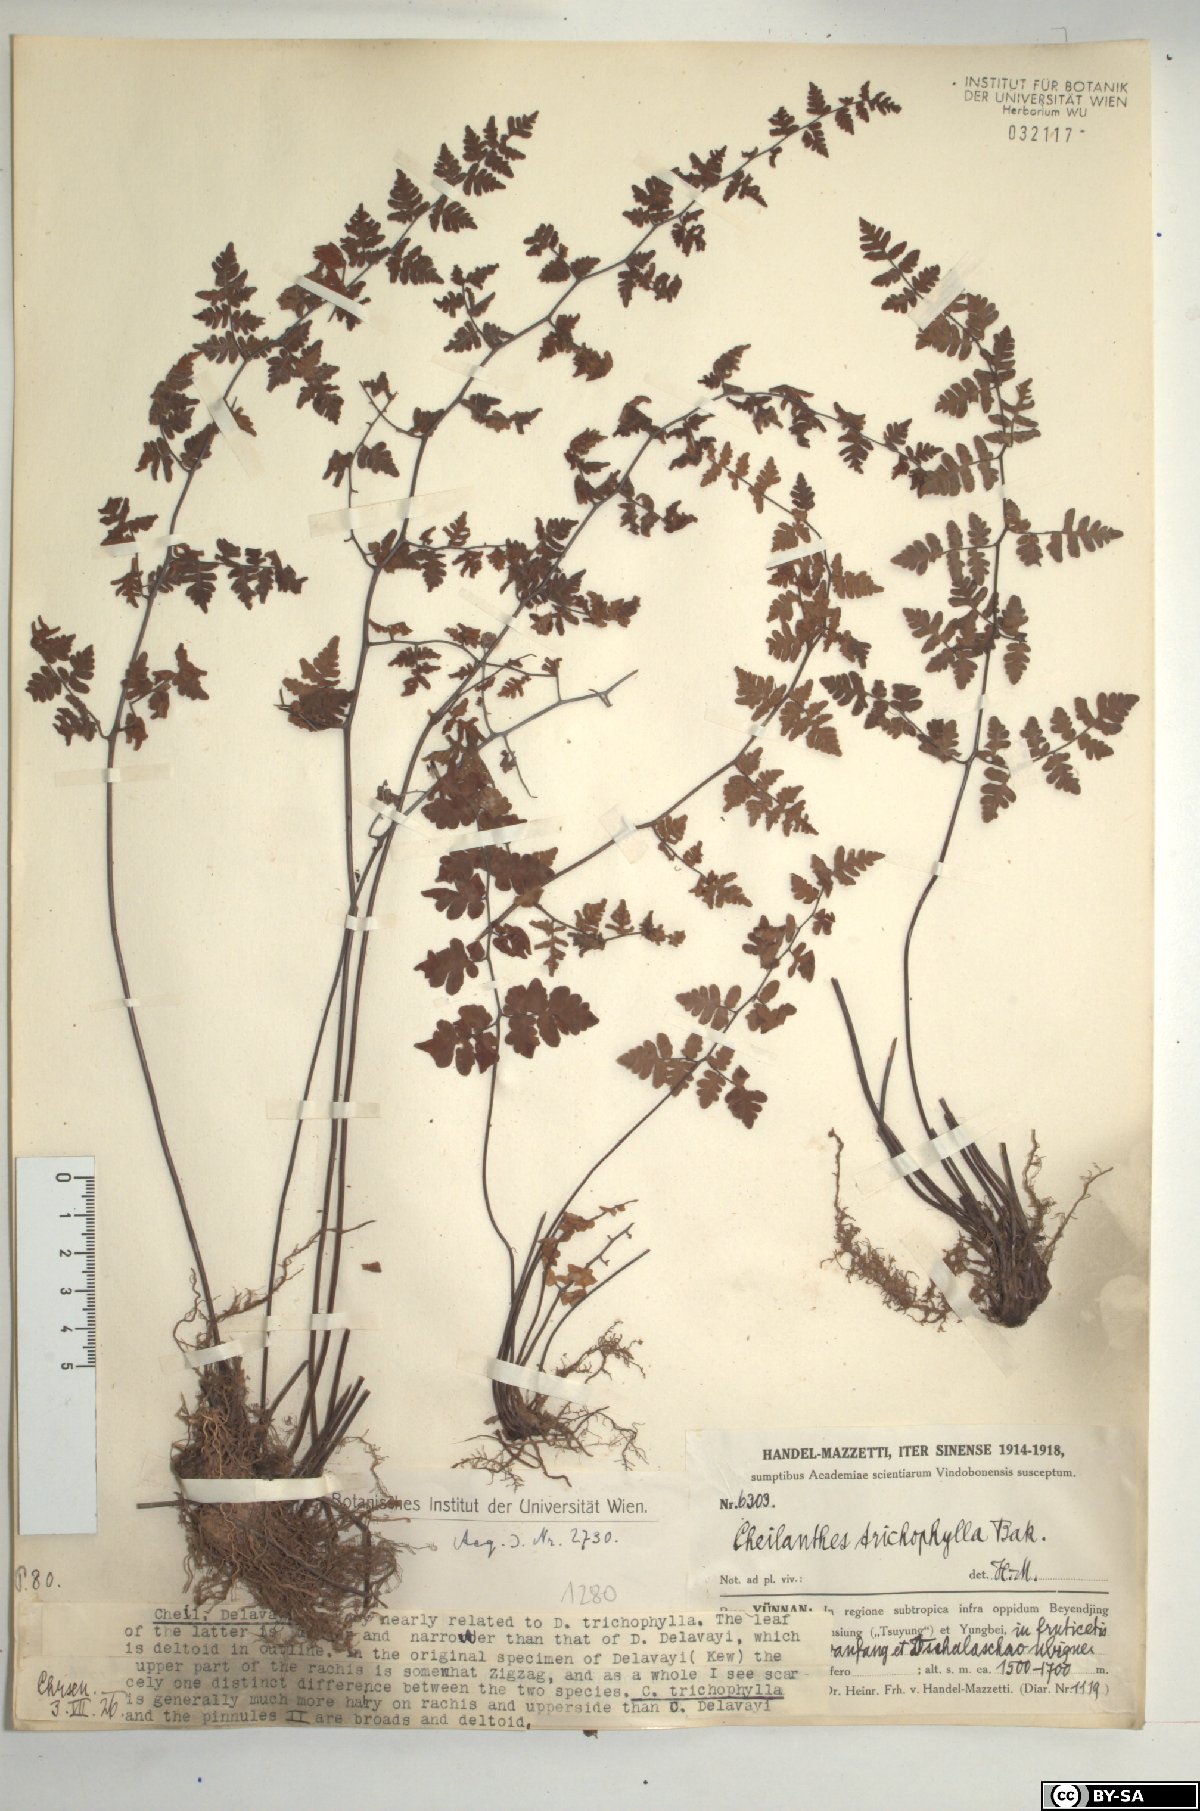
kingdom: Plantae
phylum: Tracheophyta
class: Polypodiopsida
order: Polypodiales
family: Pteridaceae
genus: Oeosporangium
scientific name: Oeosporangium trichophyllum
